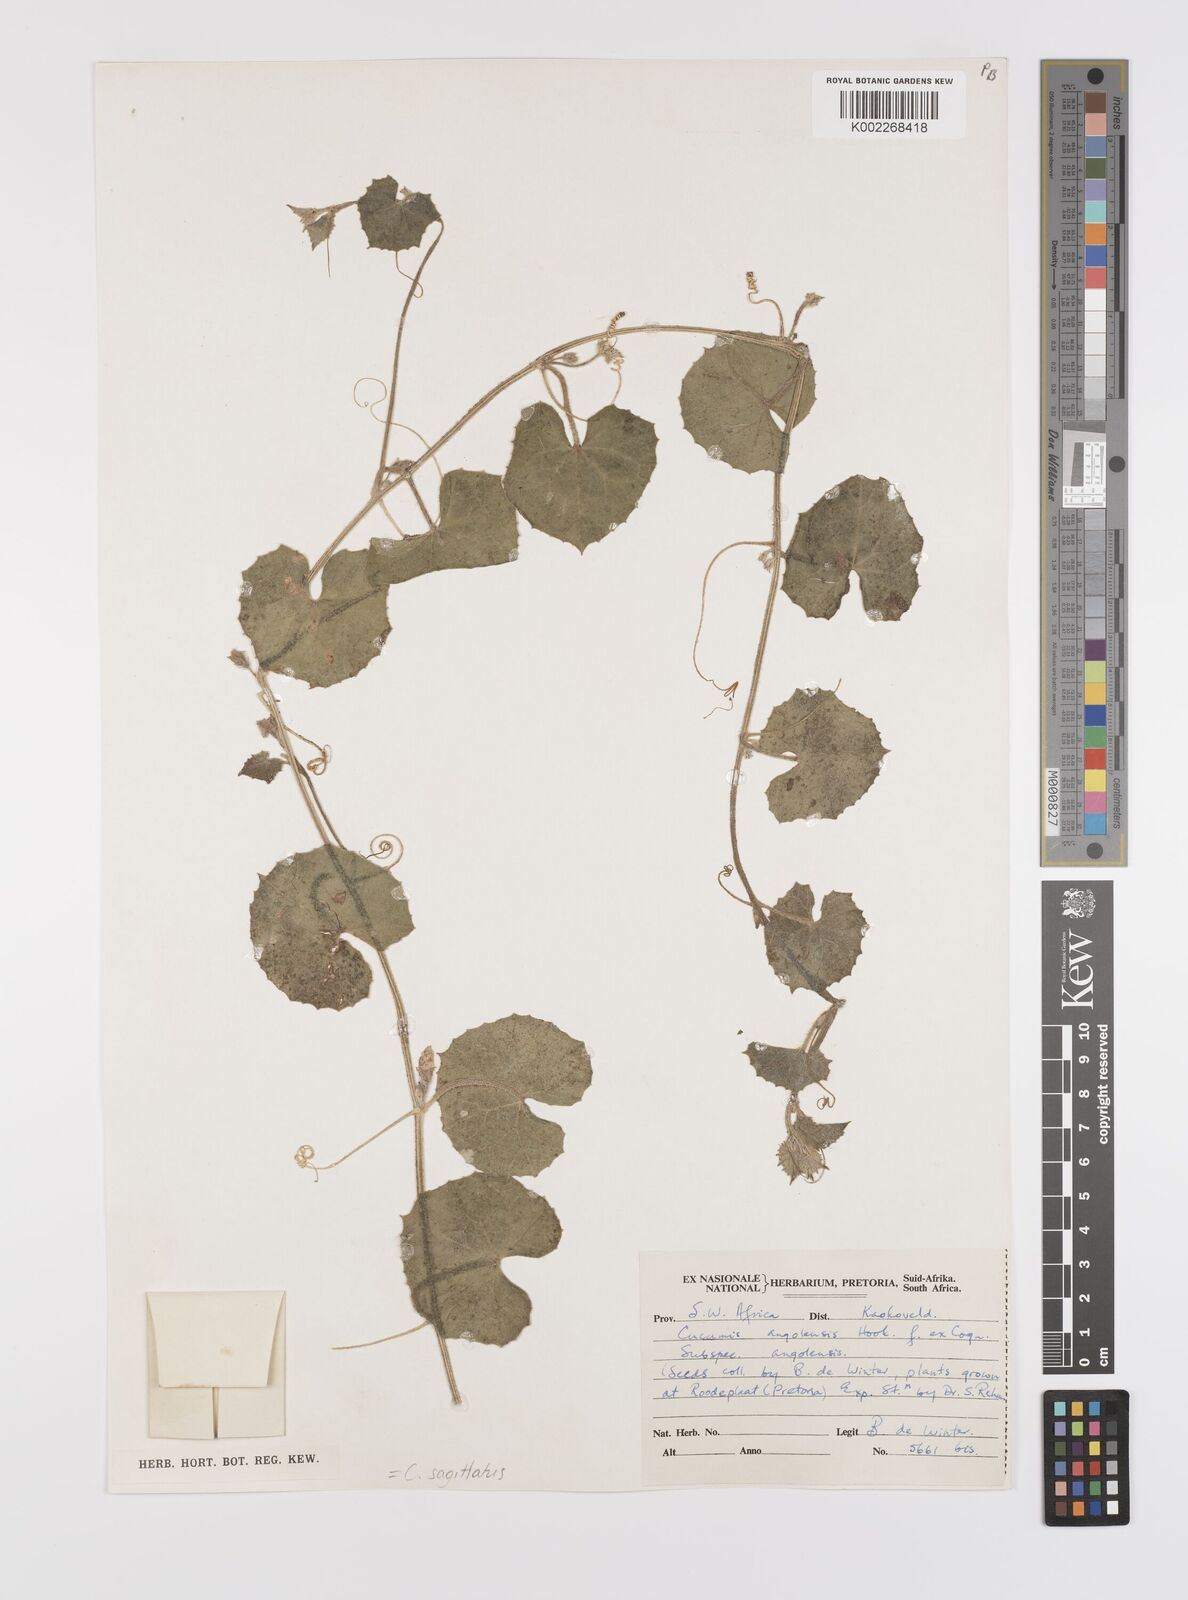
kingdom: Plantae
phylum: Tracheophyta
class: Magnoliopsida
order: Cucurbitales
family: Cucurbitaceae
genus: Cucumis
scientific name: Cucumis sagittatus
